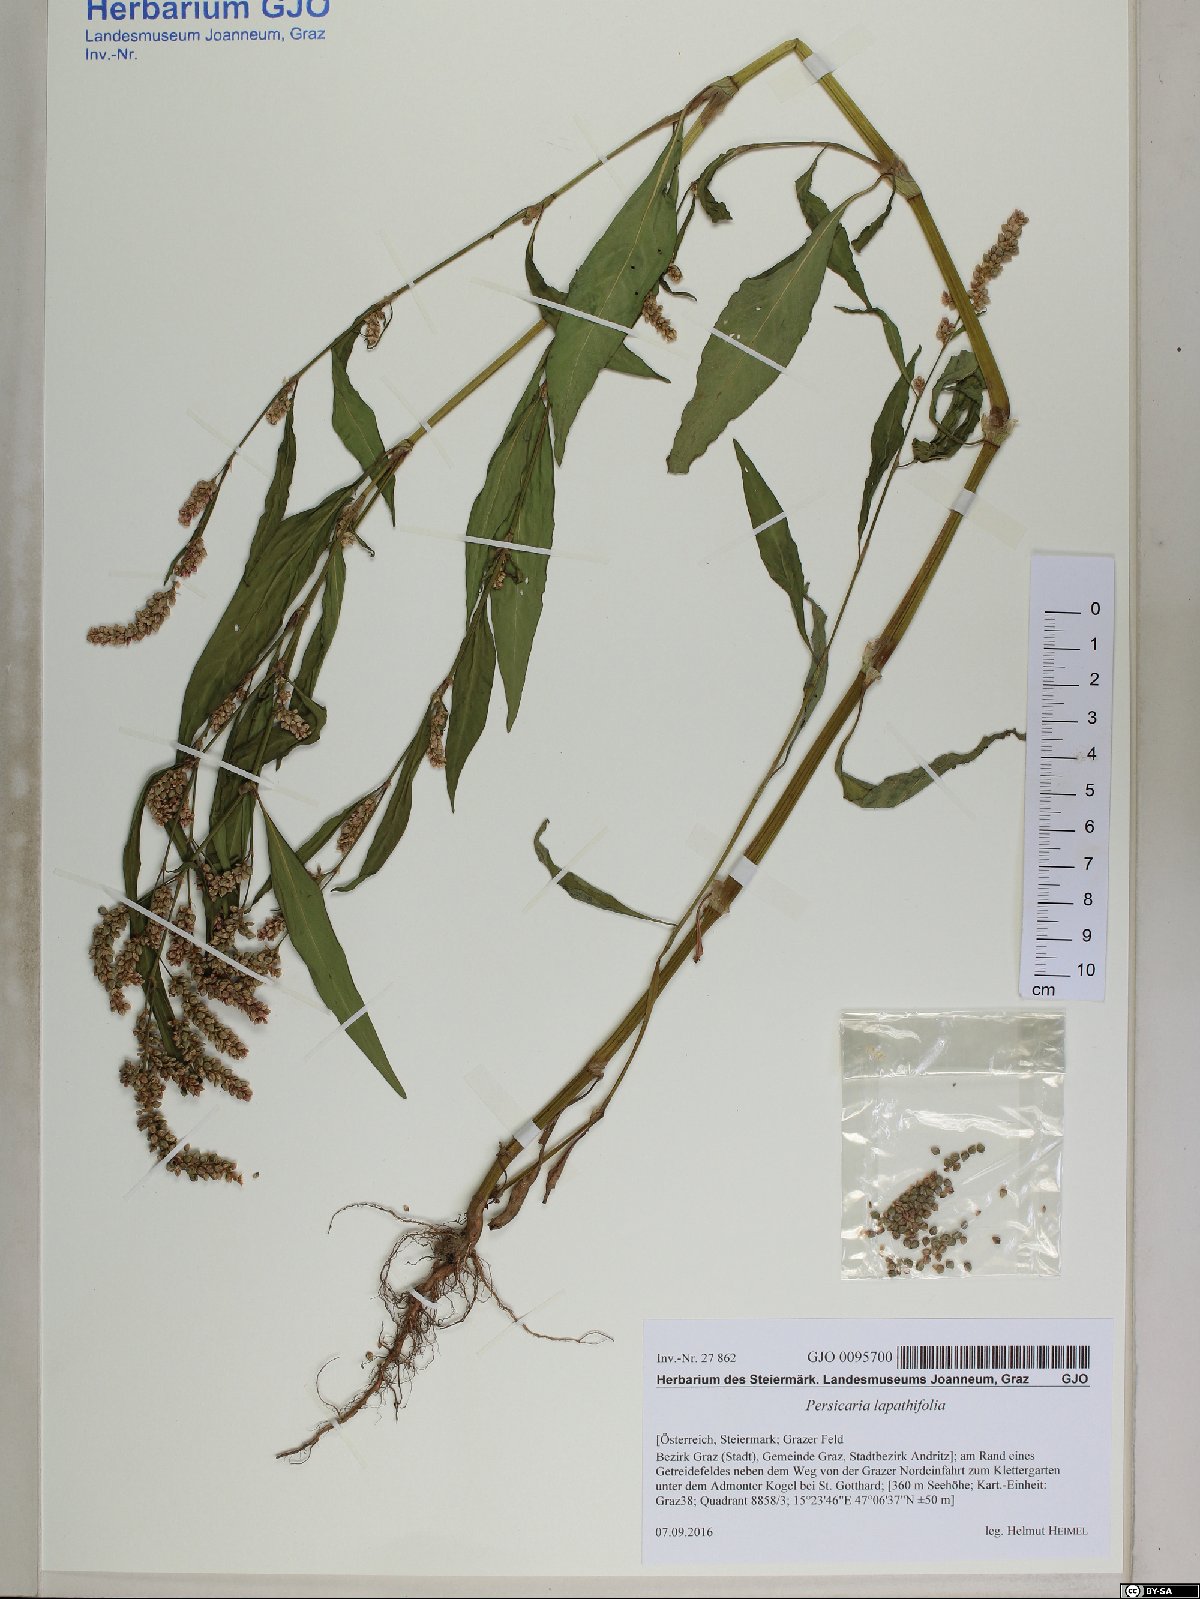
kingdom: Plantae
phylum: Tracheophyta
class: Magnoliopsida
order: Caryophyllales
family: Polygonaceae
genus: Persicaria
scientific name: Persicaria lapathifolia
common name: Curlytop knotweed
